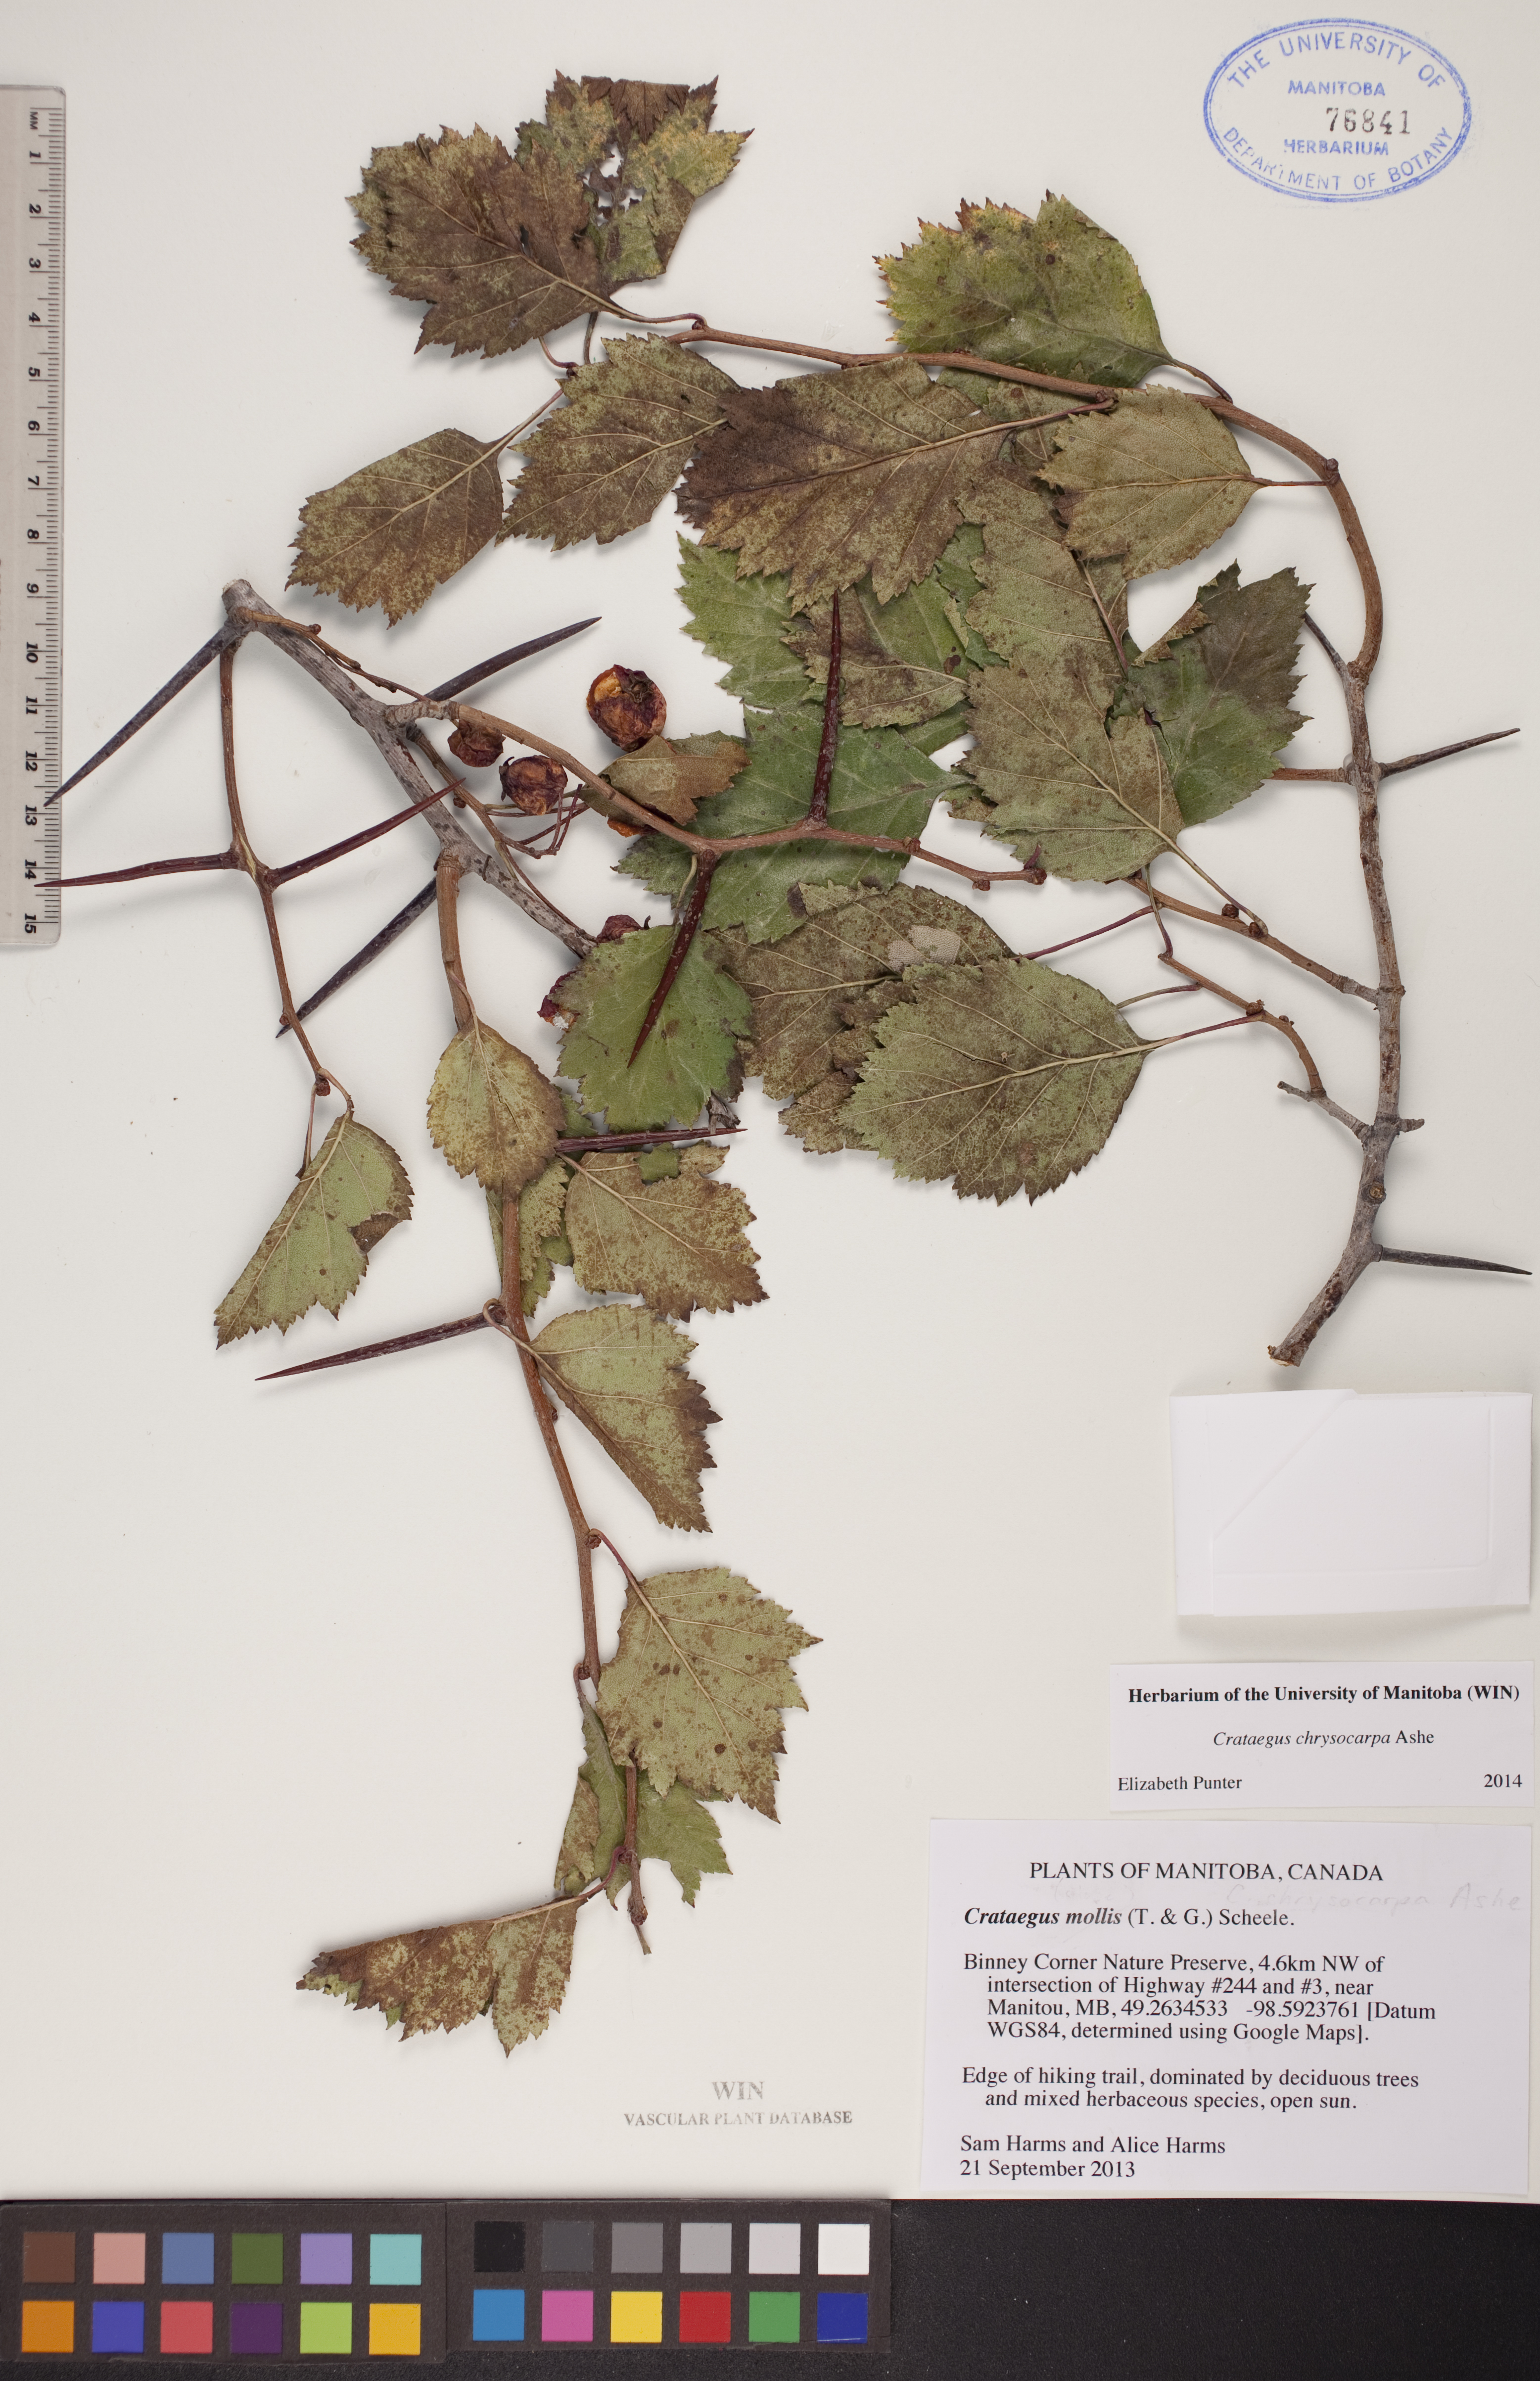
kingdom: Plantae
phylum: Tracheophyta
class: Magnoliopsida
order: Rosales
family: Rosaceae
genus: Crataegus
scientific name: Crataegus chrysocarpa
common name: Fire-berry hawthorn
